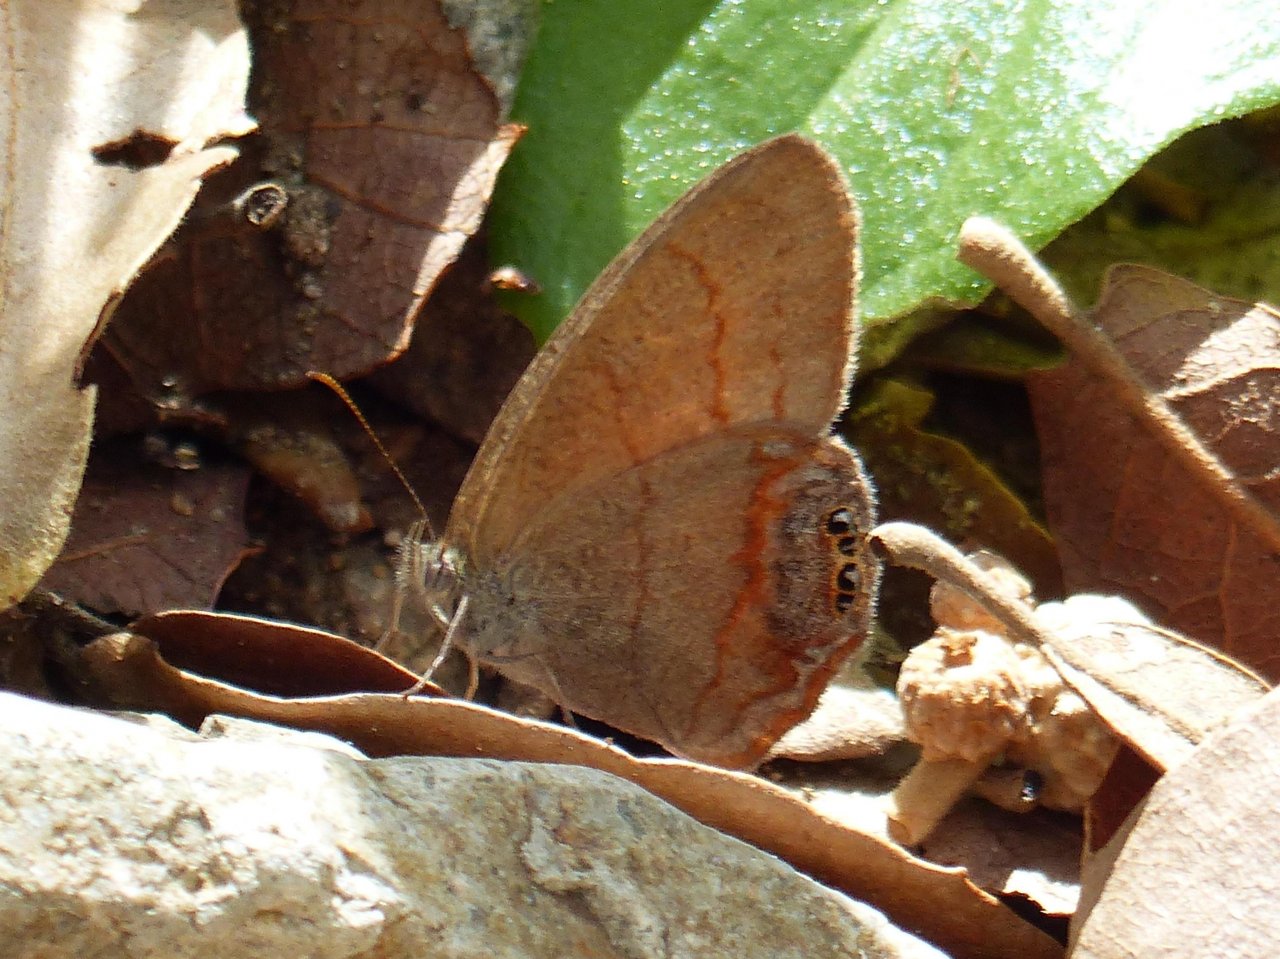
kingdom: Animalia
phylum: Arthropoda
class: Insecta
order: Lepidoptera
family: Nymphalidae
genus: Euptychia
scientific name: Euptychia pyracmon
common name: Nabokov's Satyr
